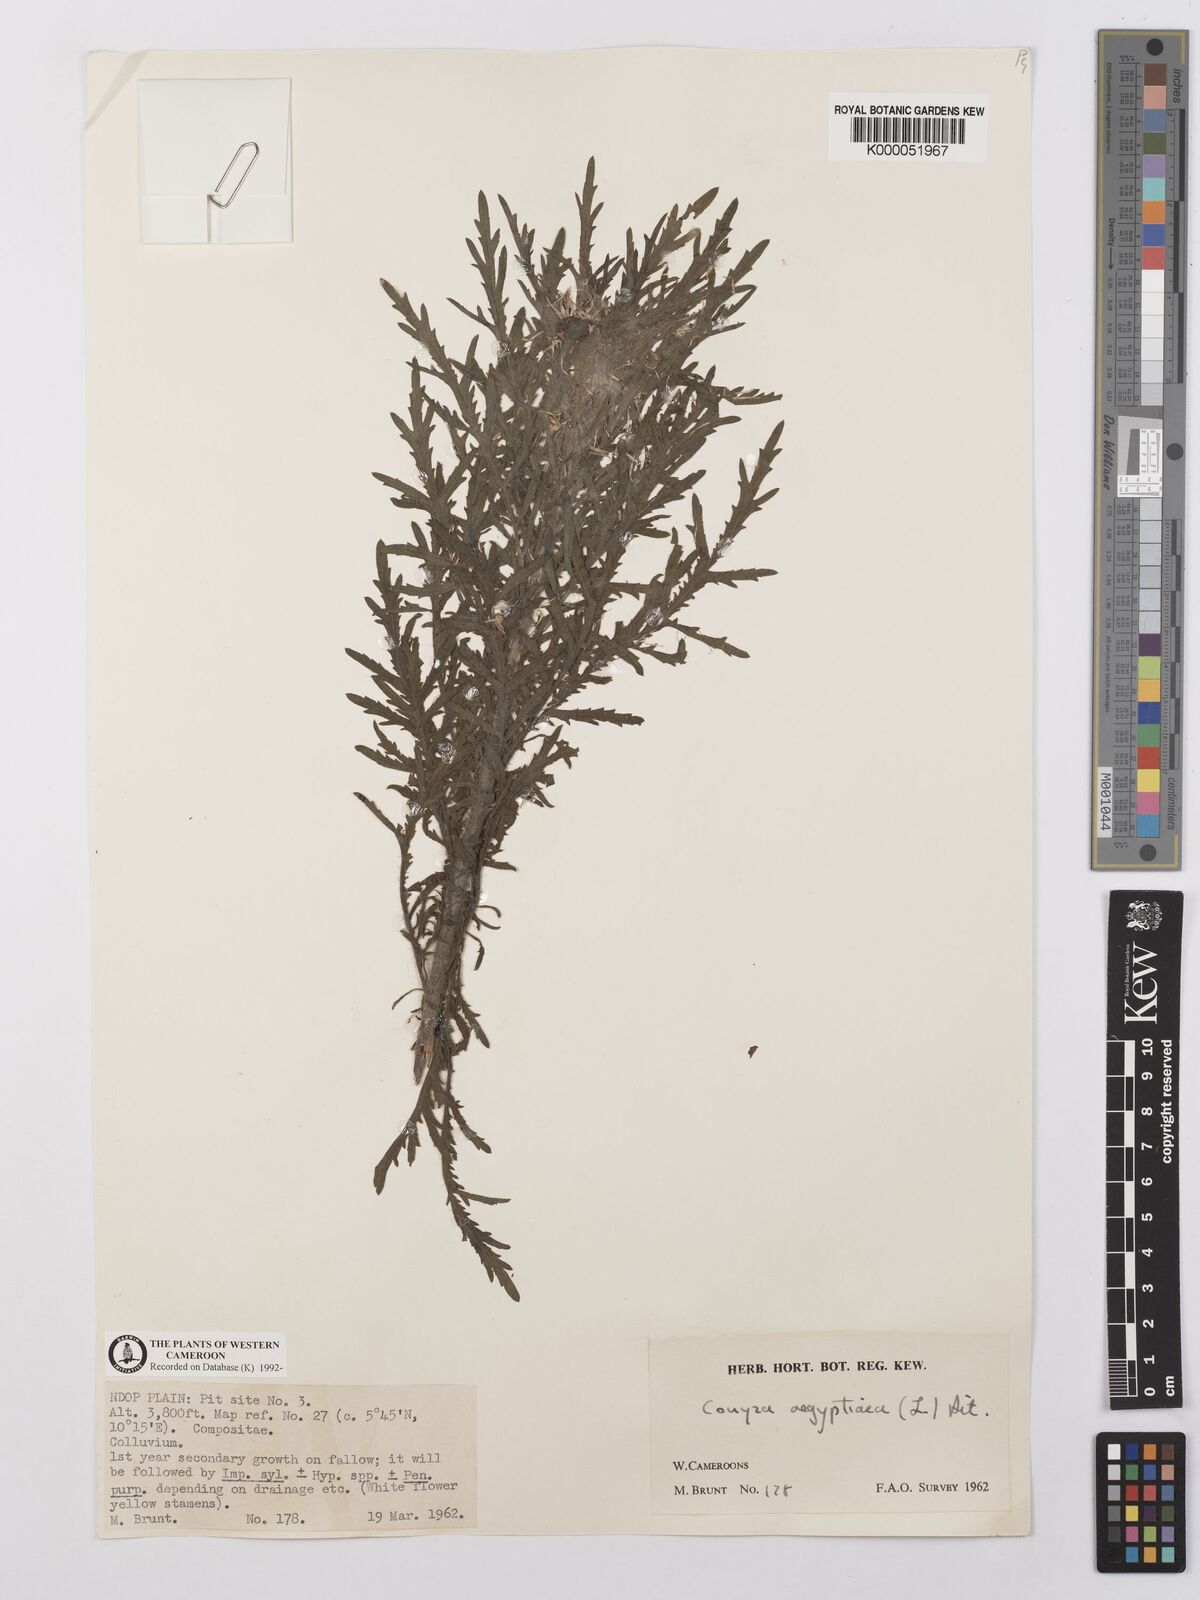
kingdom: Plantae
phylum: Tracheophyta
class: Magnoliopsida
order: Asterales
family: Asteraceae
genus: Nidorella
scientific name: Nidorella aegyptiaca
